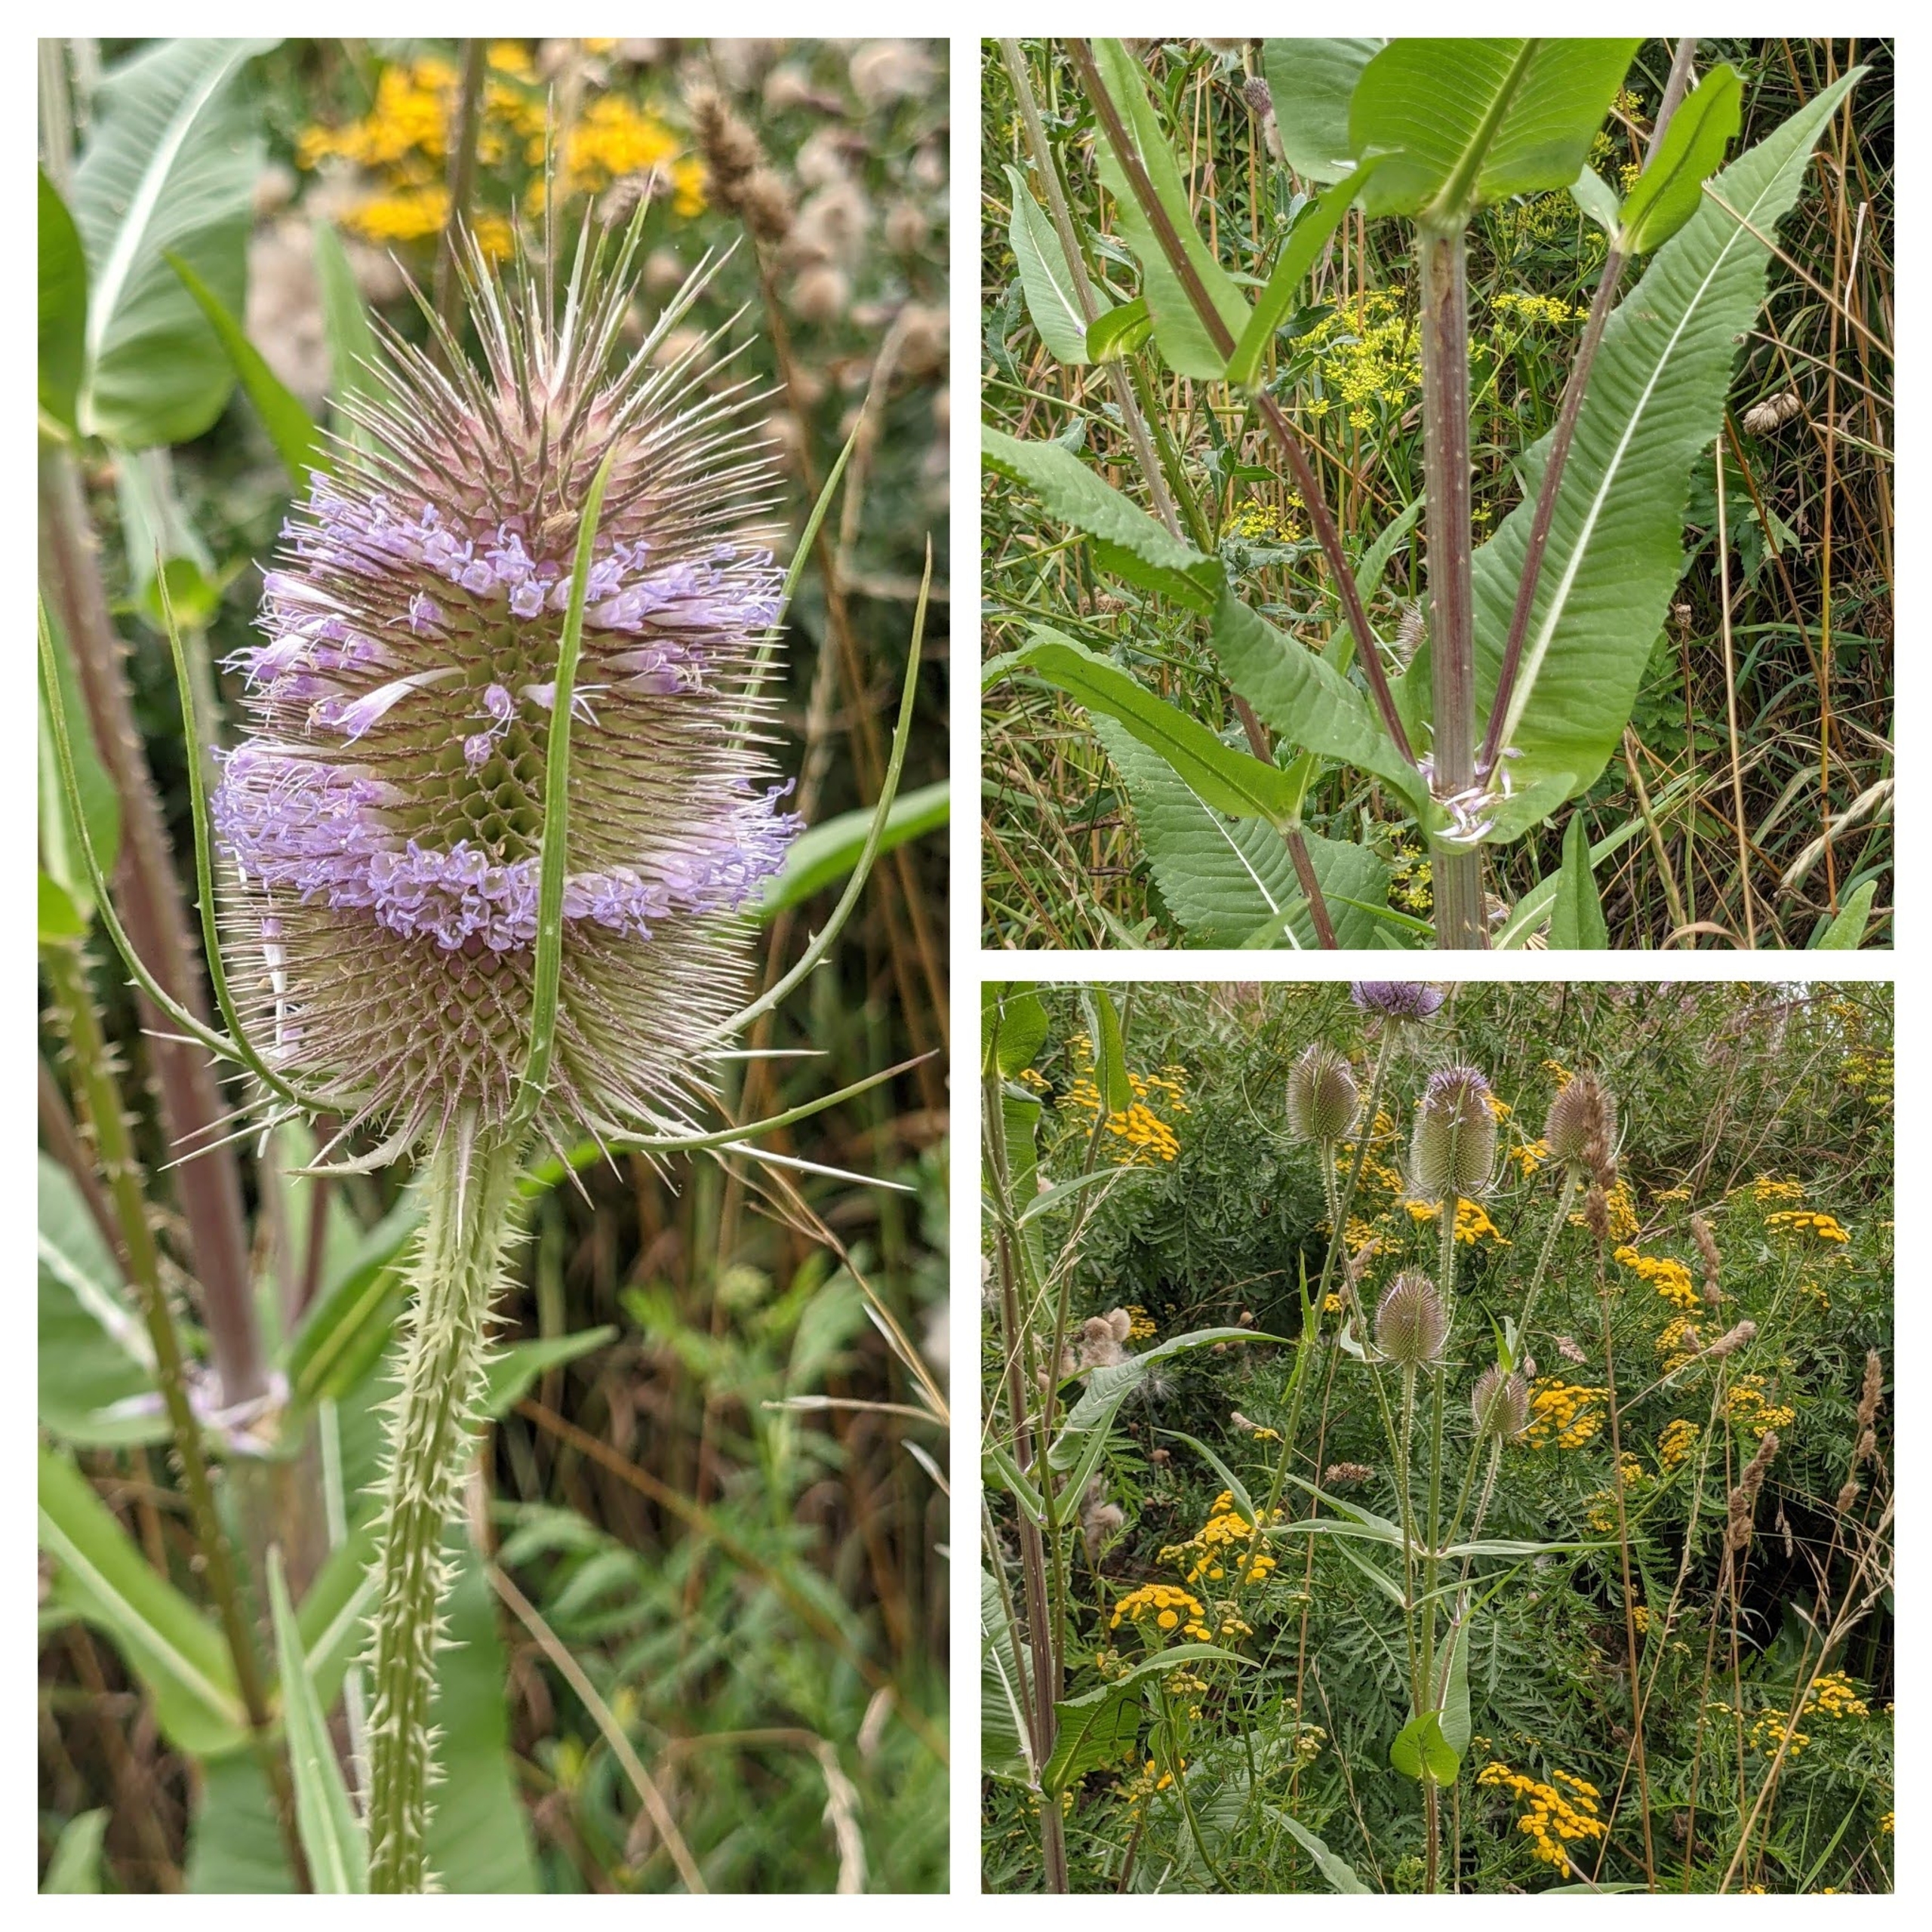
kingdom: Plantae
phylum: Tracheophyta
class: Magnoliopsida
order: Dipsacales
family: Caprifoliaceae
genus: Dipsacus
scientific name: Dipsacus fullonum
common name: Gærde-kartebolle
